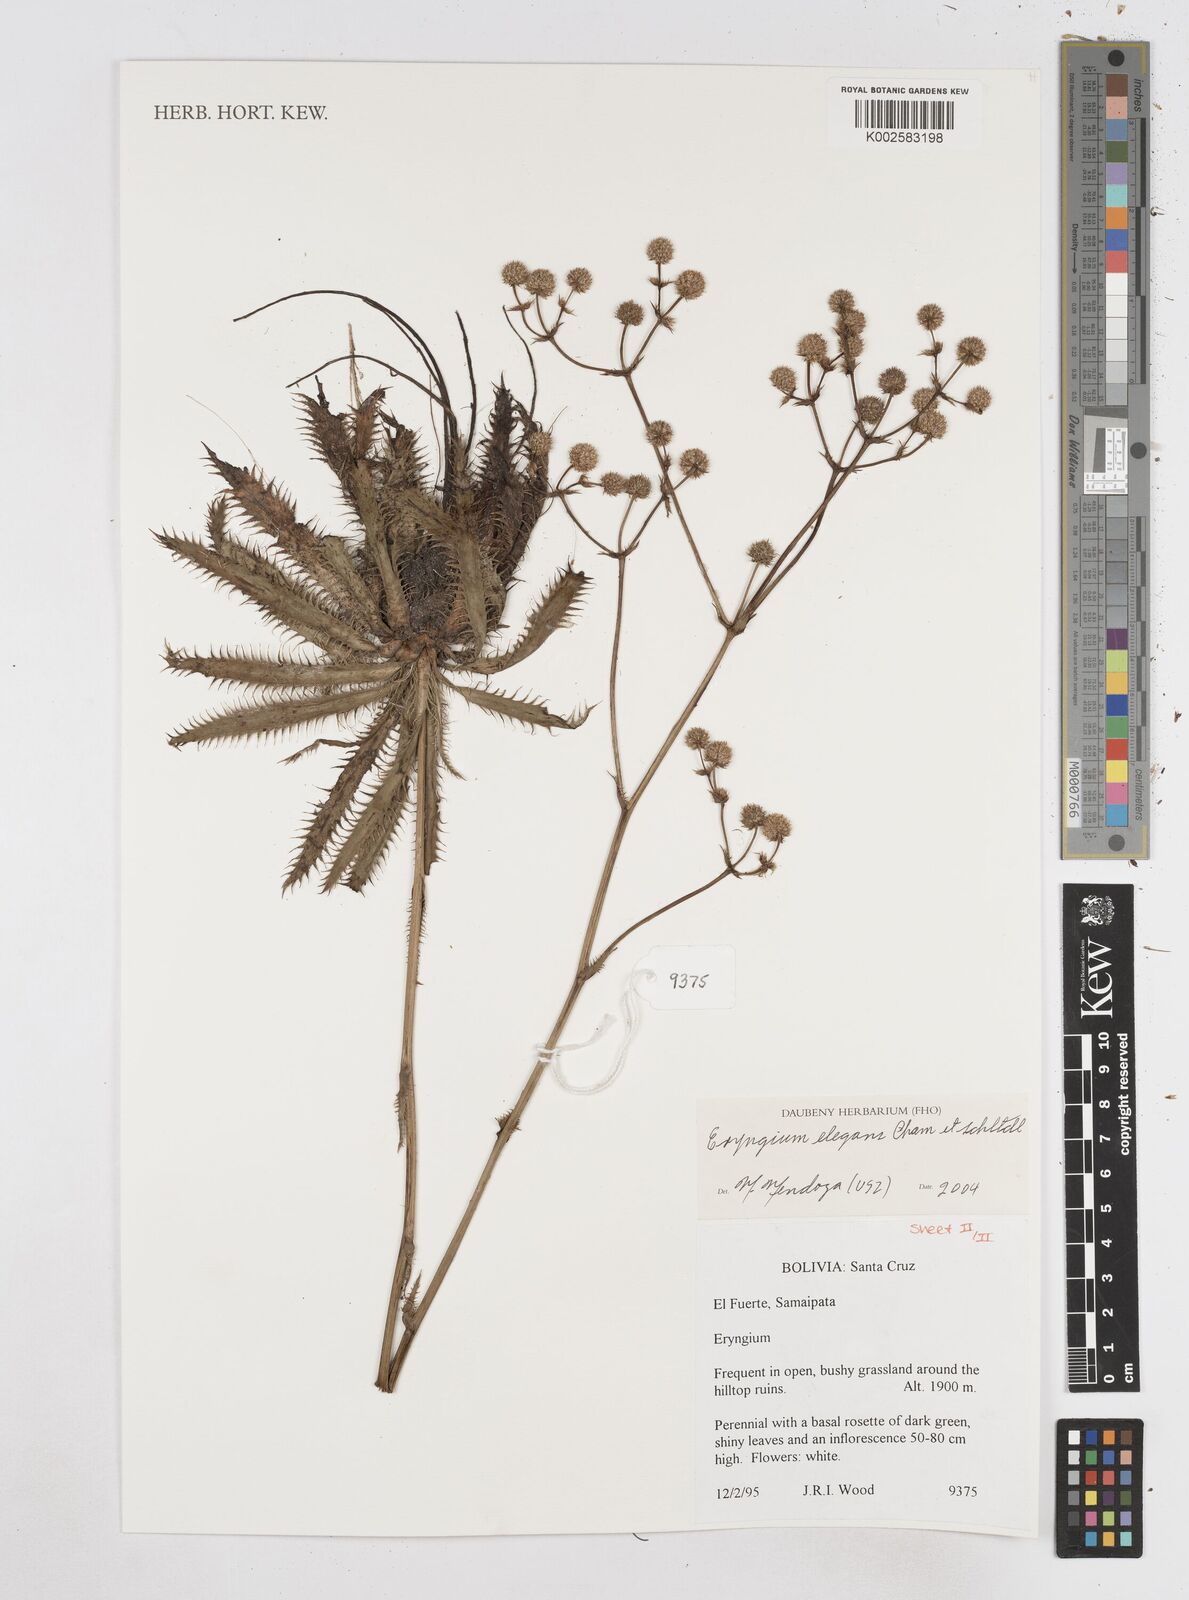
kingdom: Plantae
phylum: Tracheophyta
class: Magnoliopsida
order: Apiales
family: Apiaceae
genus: Eryngium
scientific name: Eryngium elegans
